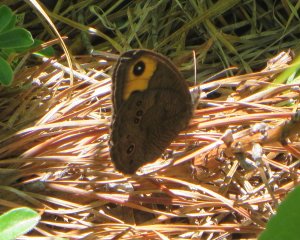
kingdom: Animalia
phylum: Arthropoda
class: Insecta
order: Lepidoptera
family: Nymphalidae
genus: Cercyonis
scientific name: Cercyonis pegala
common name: Common Wood-Nymph
